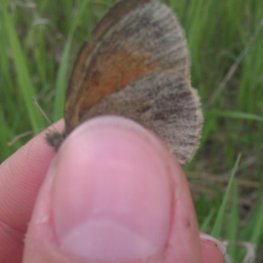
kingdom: Animalia
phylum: Arthropoda
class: Insecta
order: Lepidoptera
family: Nymphalidae
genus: Coenonympha
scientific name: Coenonympha tullia
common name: Large Heath
